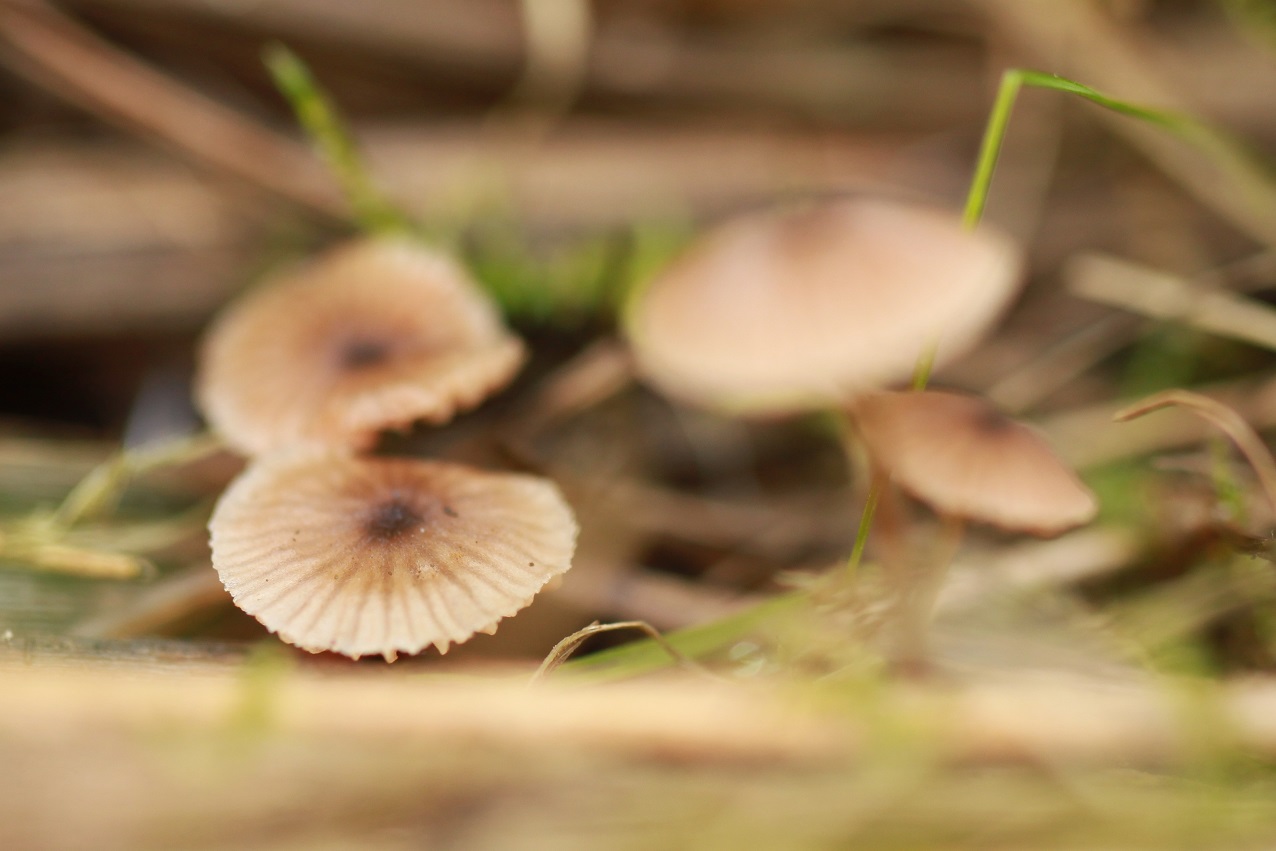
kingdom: Fungi
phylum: Basidiomycota
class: Agaricomycetes
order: Agaricales
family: Entolomataceae
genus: Entoloma
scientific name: Entoloma pygmaeopapillatum
